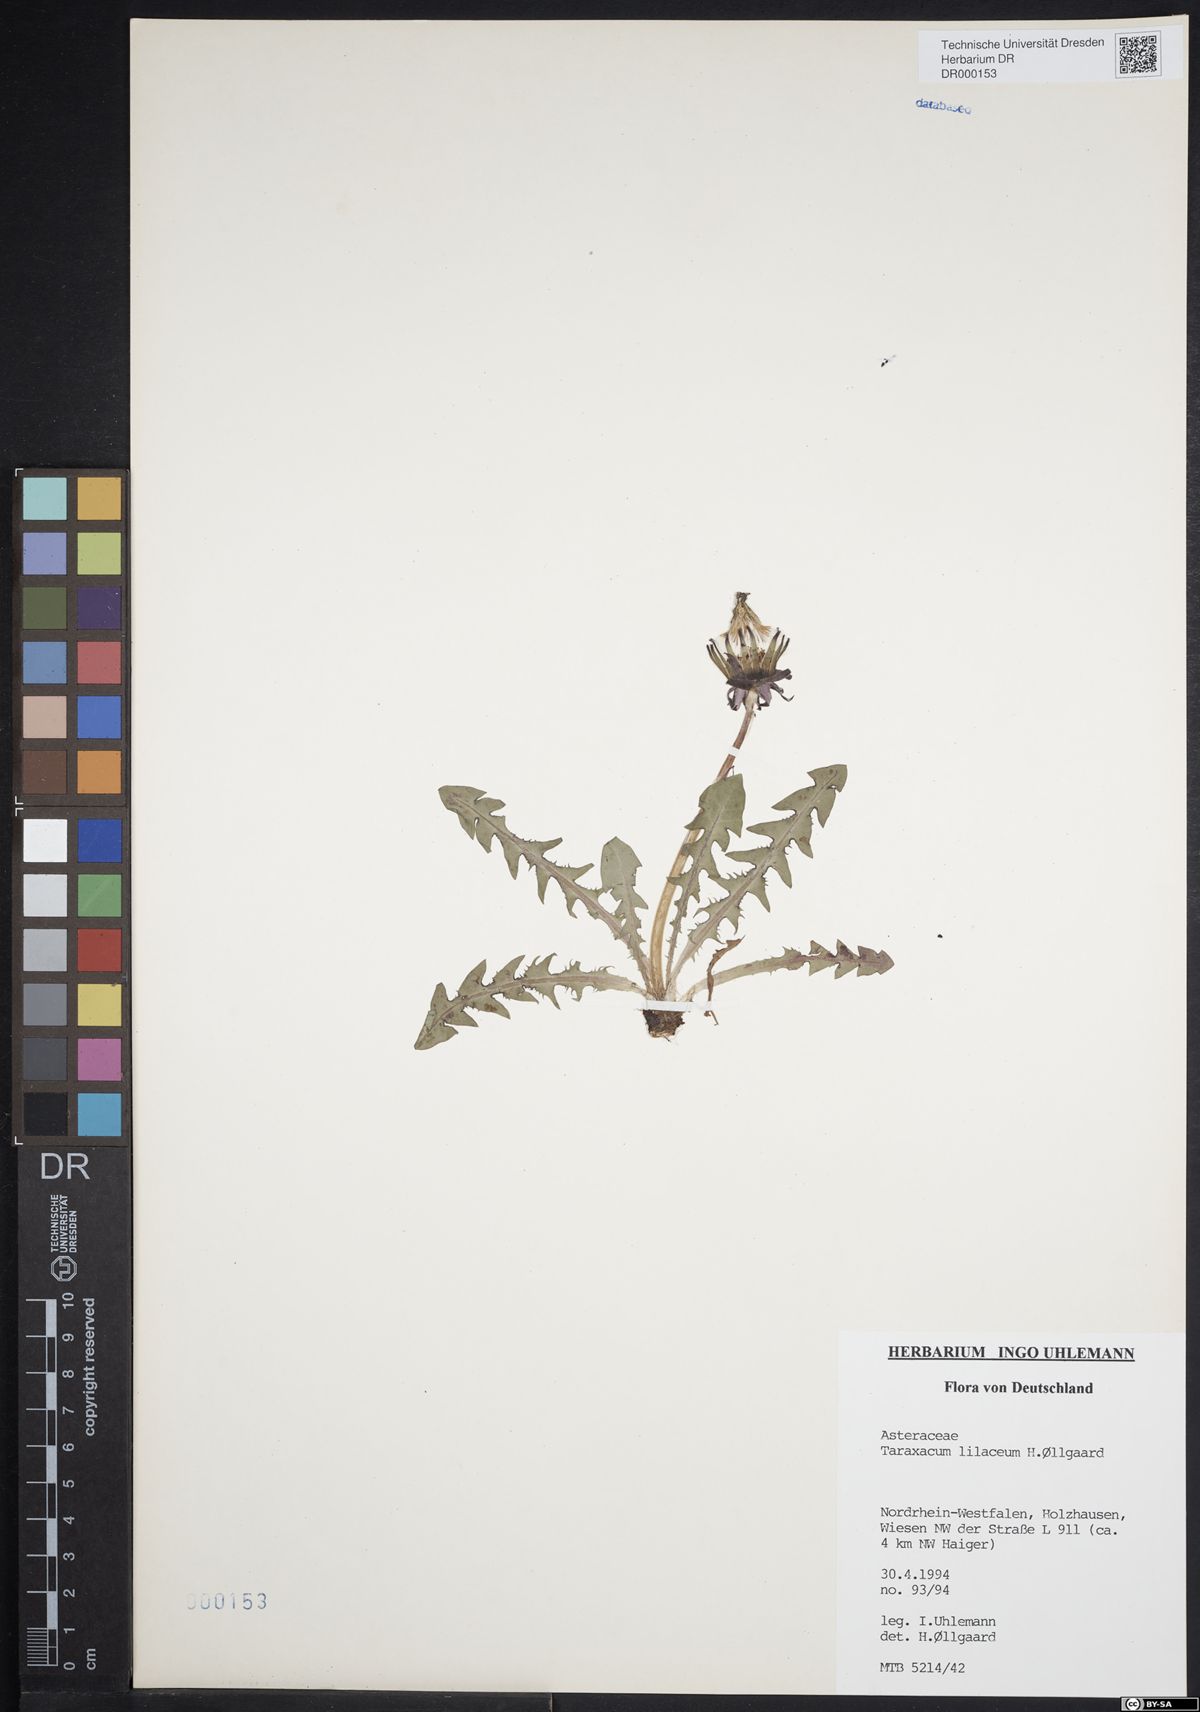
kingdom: Plantae
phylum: Tracheophyta
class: Magnoliopsida
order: Asterales
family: Asteraceae
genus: Taraxacum
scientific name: Taraxacum floccosum
